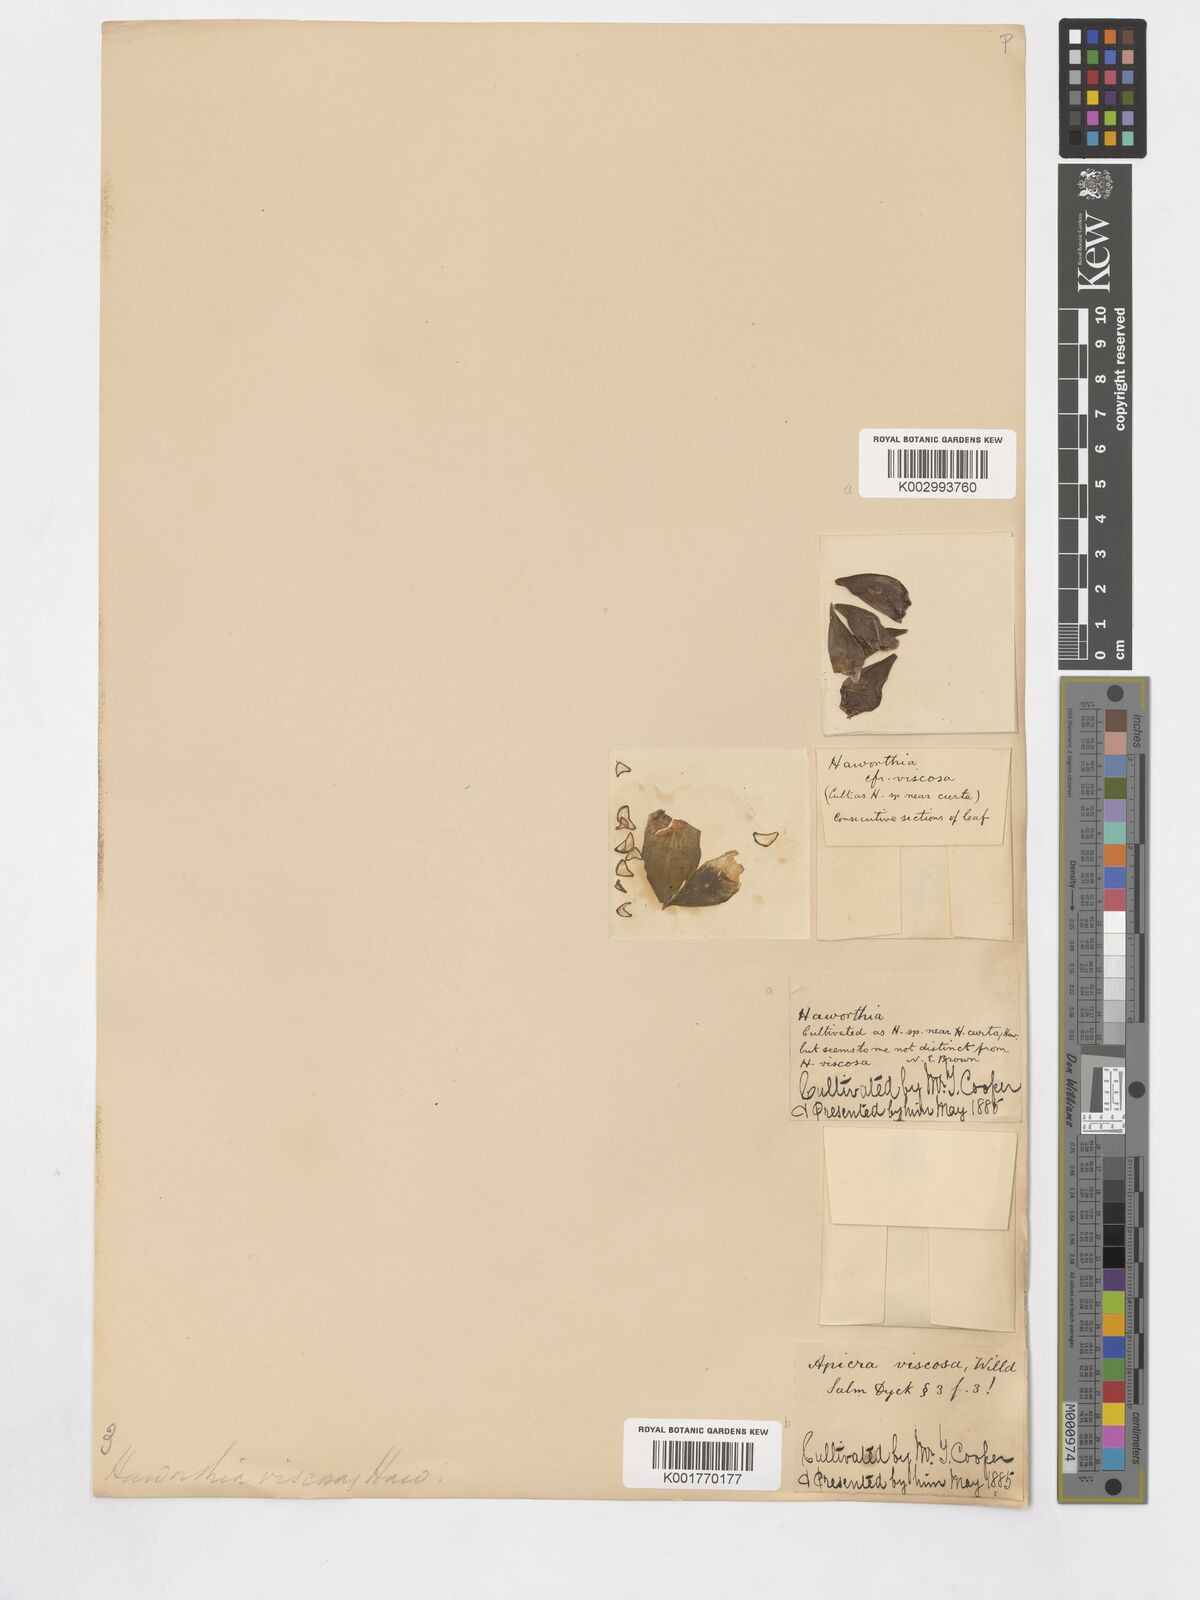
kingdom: Plantae
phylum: Tracheophyta
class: Liliopsida
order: Asparagales
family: Asphodelaceae
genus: Haworthiopsis
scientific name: Haworthiopsis viscosa
